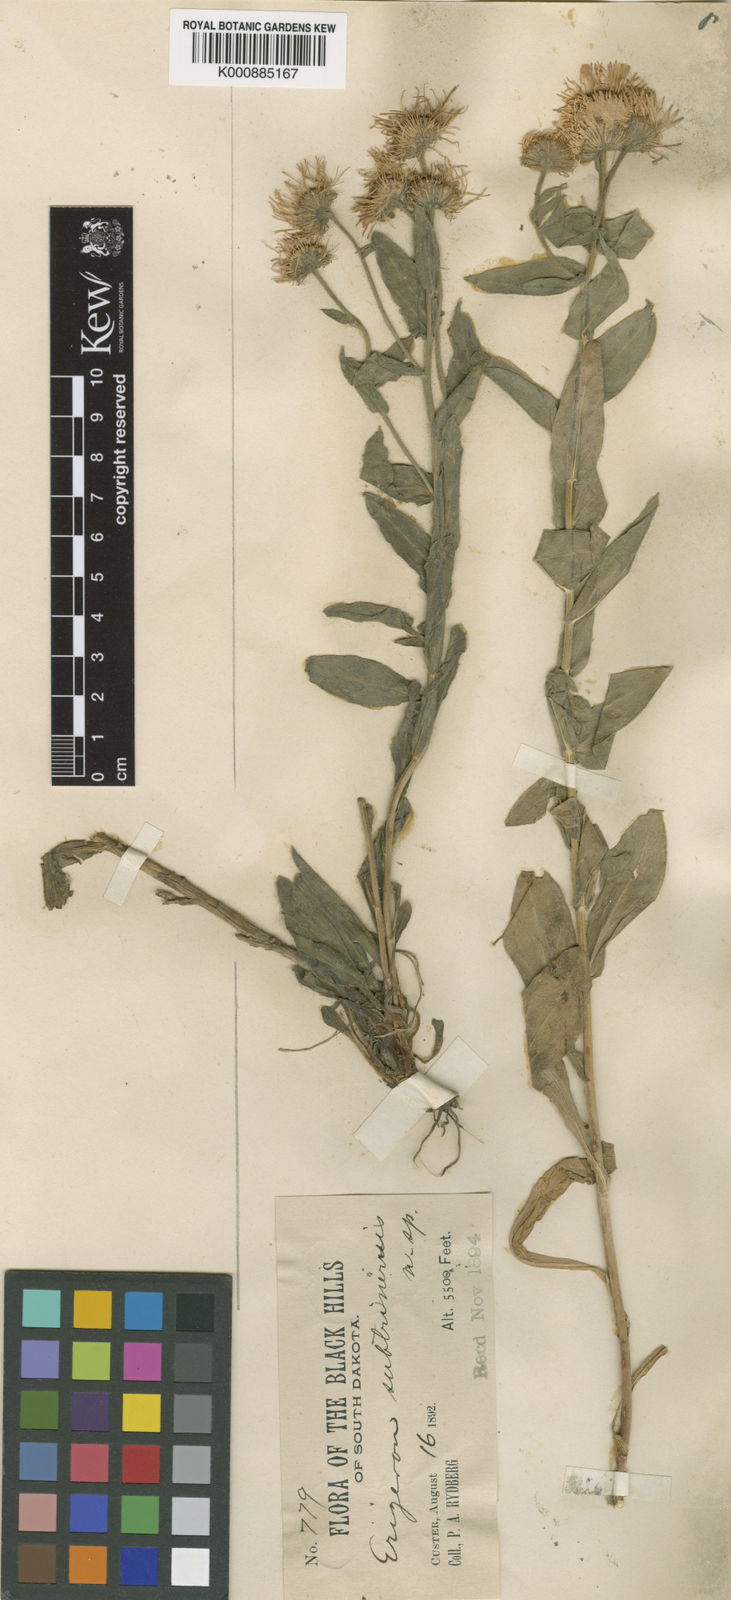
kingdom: Plantae
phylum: Tracheophyta
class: Magnoliopsida
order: Asterales
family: Asteraceae
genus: Erigeron
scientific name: Erigeron subtrinervis
